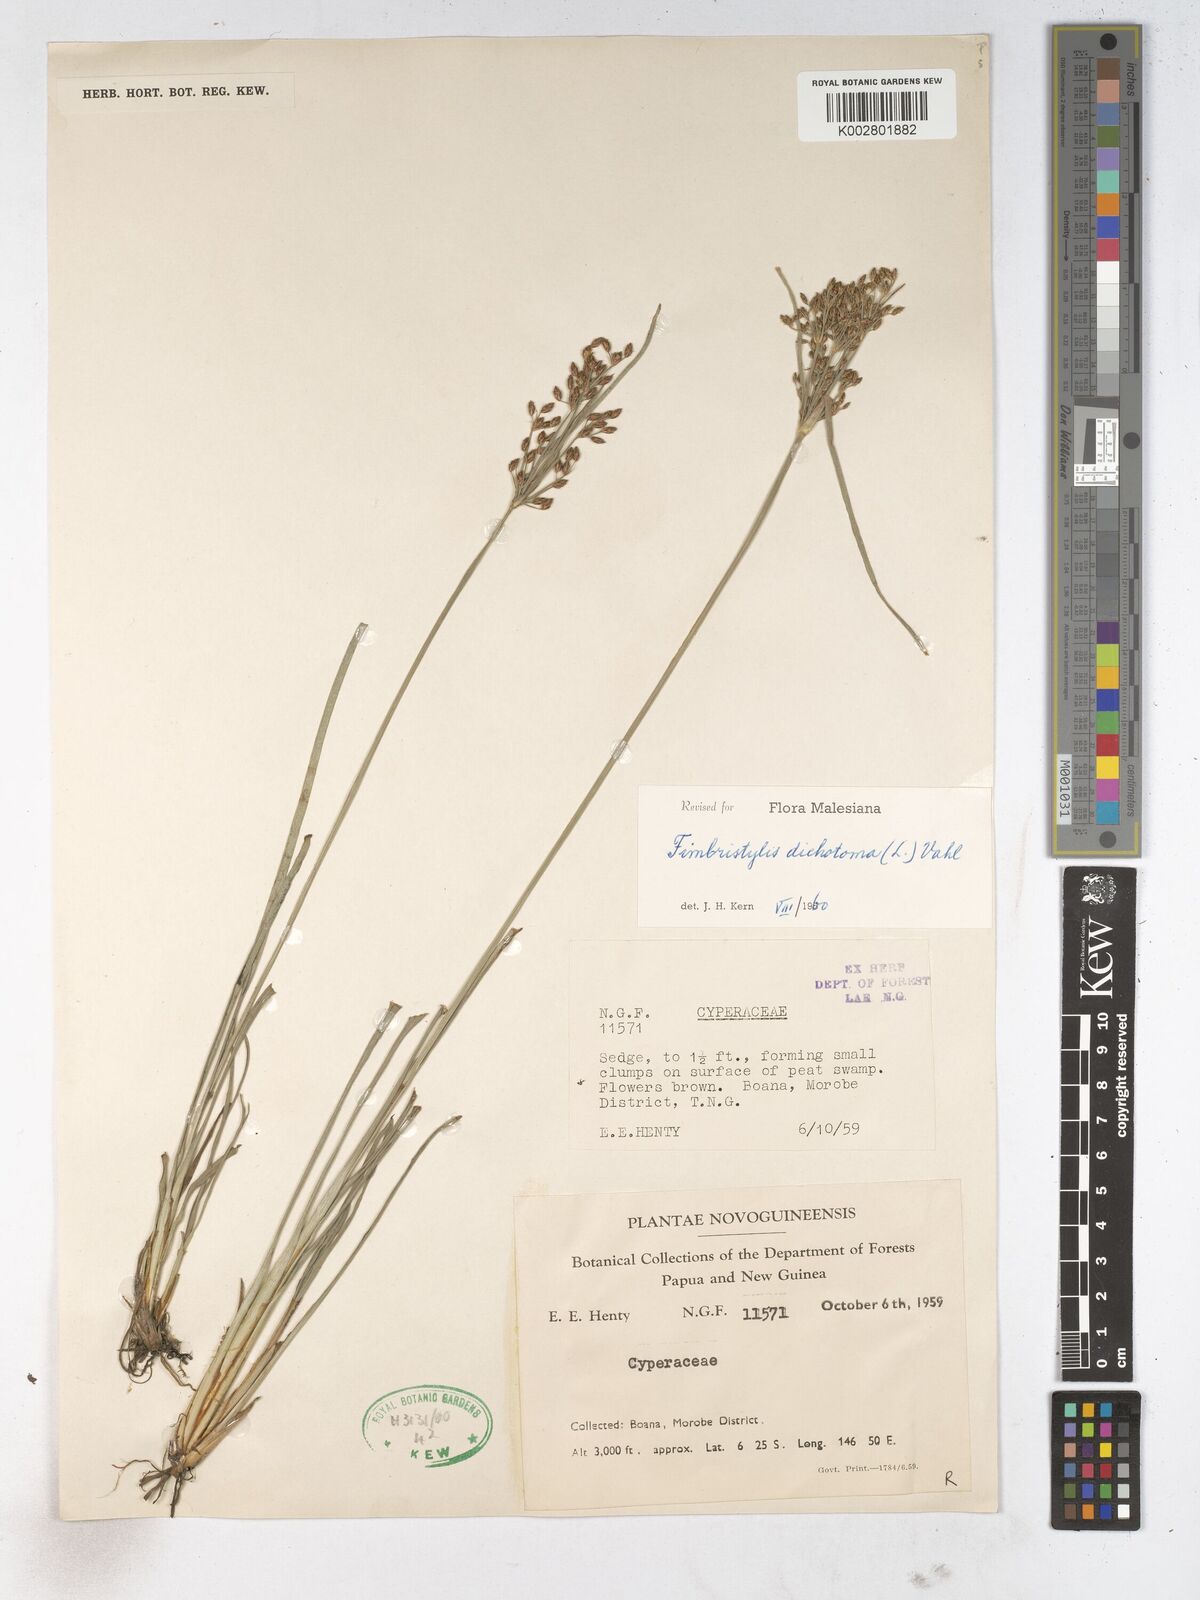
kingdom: Plantae
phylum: Tracheophyta
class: Liliopsida
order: Poales
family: Cyperaceae
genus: Fimbristylis
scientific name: Fimbristylis dichotoma
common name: Forked fimbry
